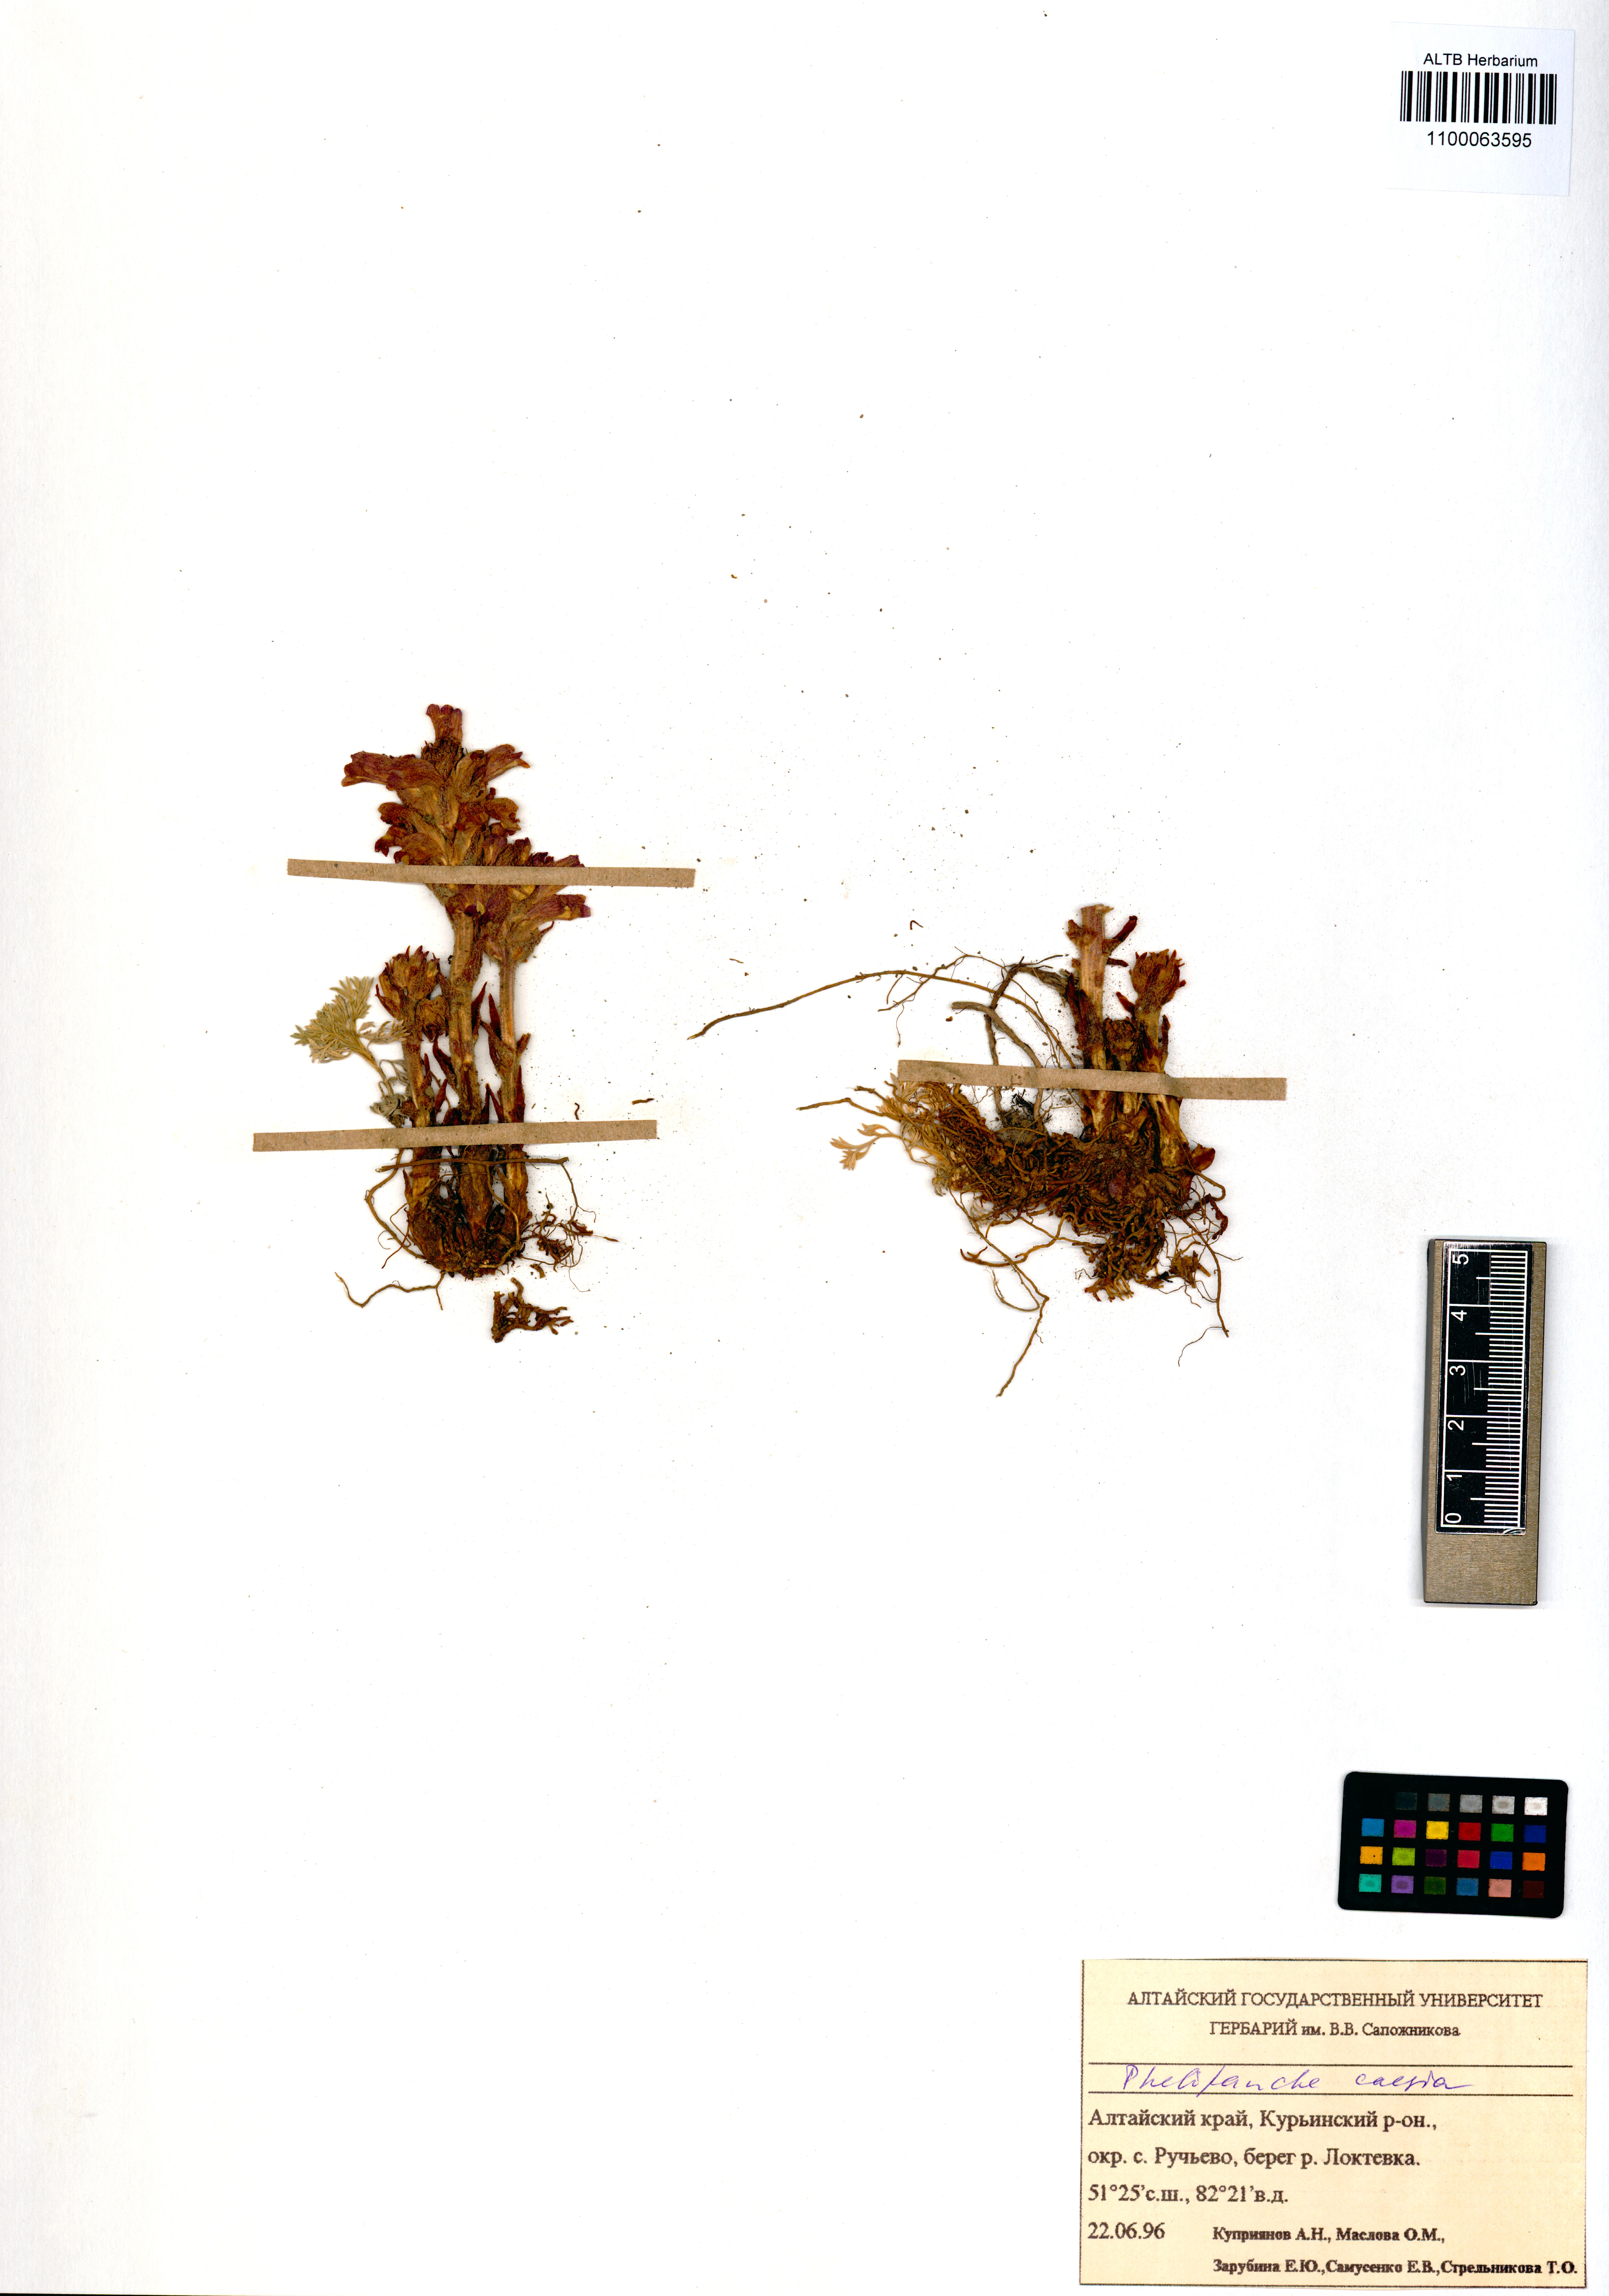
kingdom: Plantae
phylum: Tracheophyta
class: Magnoliopsida
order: Lamiales
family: Orobanchaceae
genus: Phelipanche
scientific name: Phelipanche caesia
